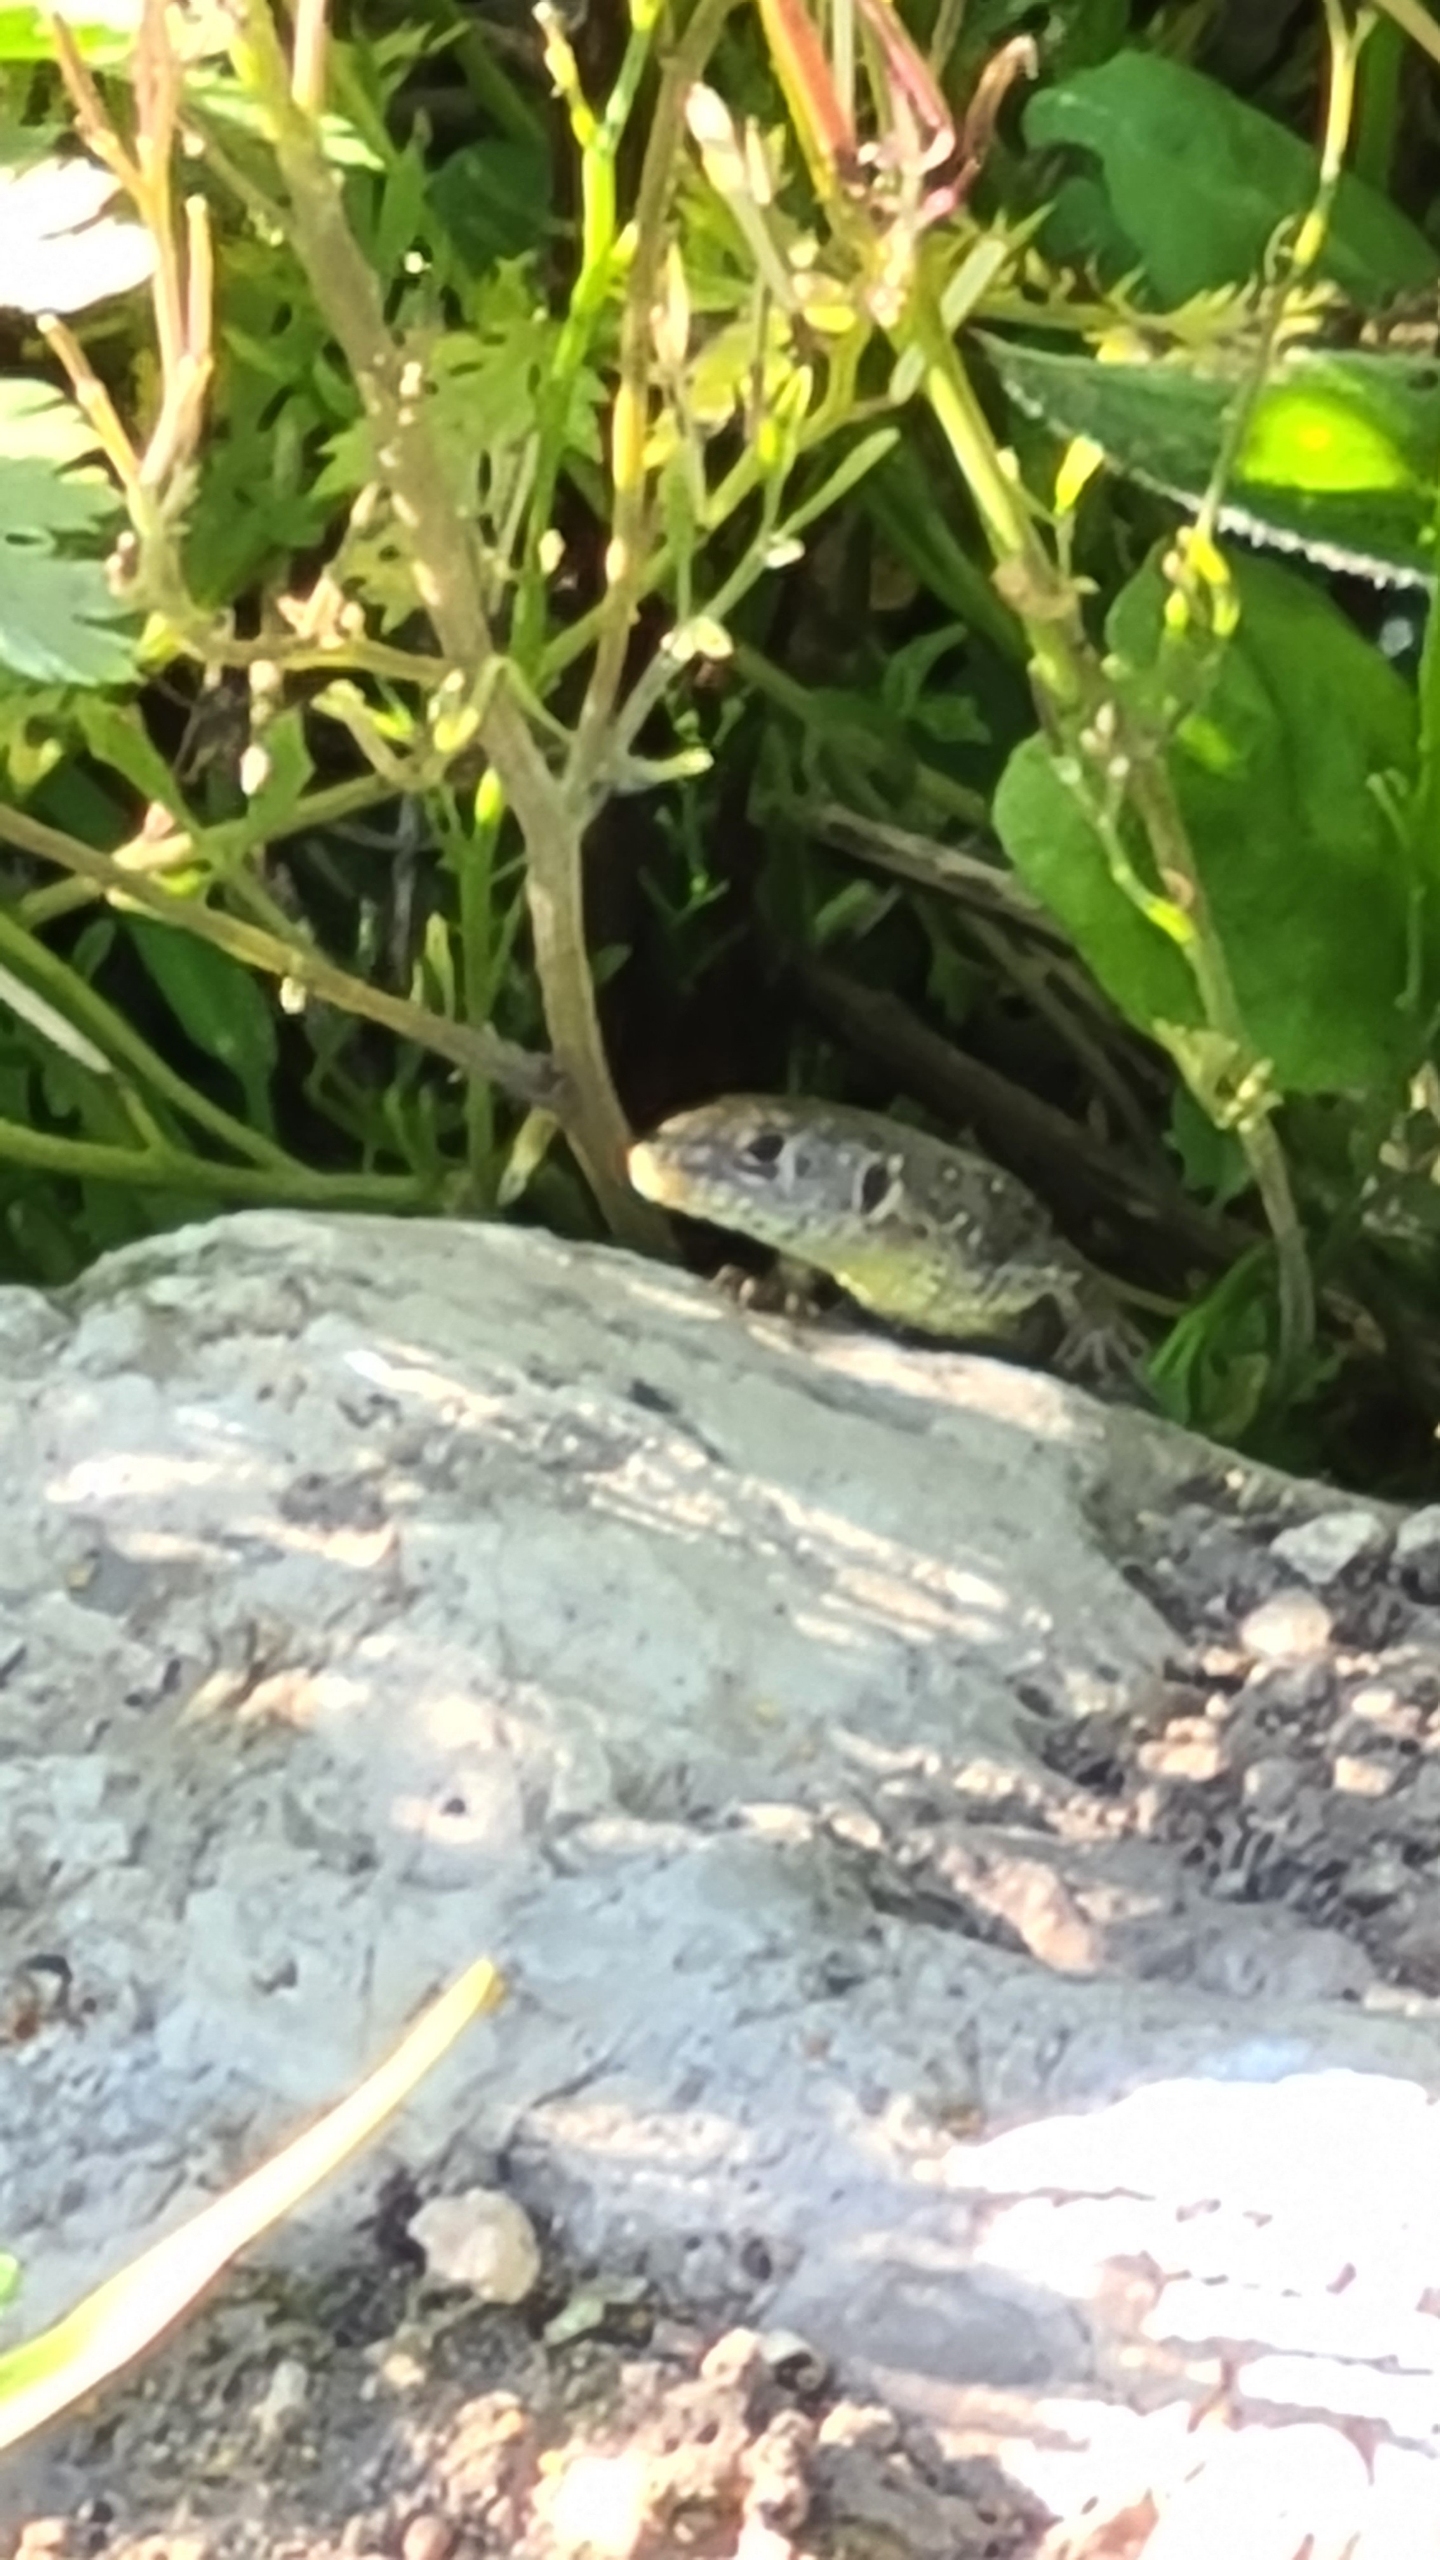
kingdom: Animalia
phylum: Chordata
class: Squamata
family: Lacertidae
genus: Lacerta
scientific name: Lacerta agilis
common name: Markfirben
